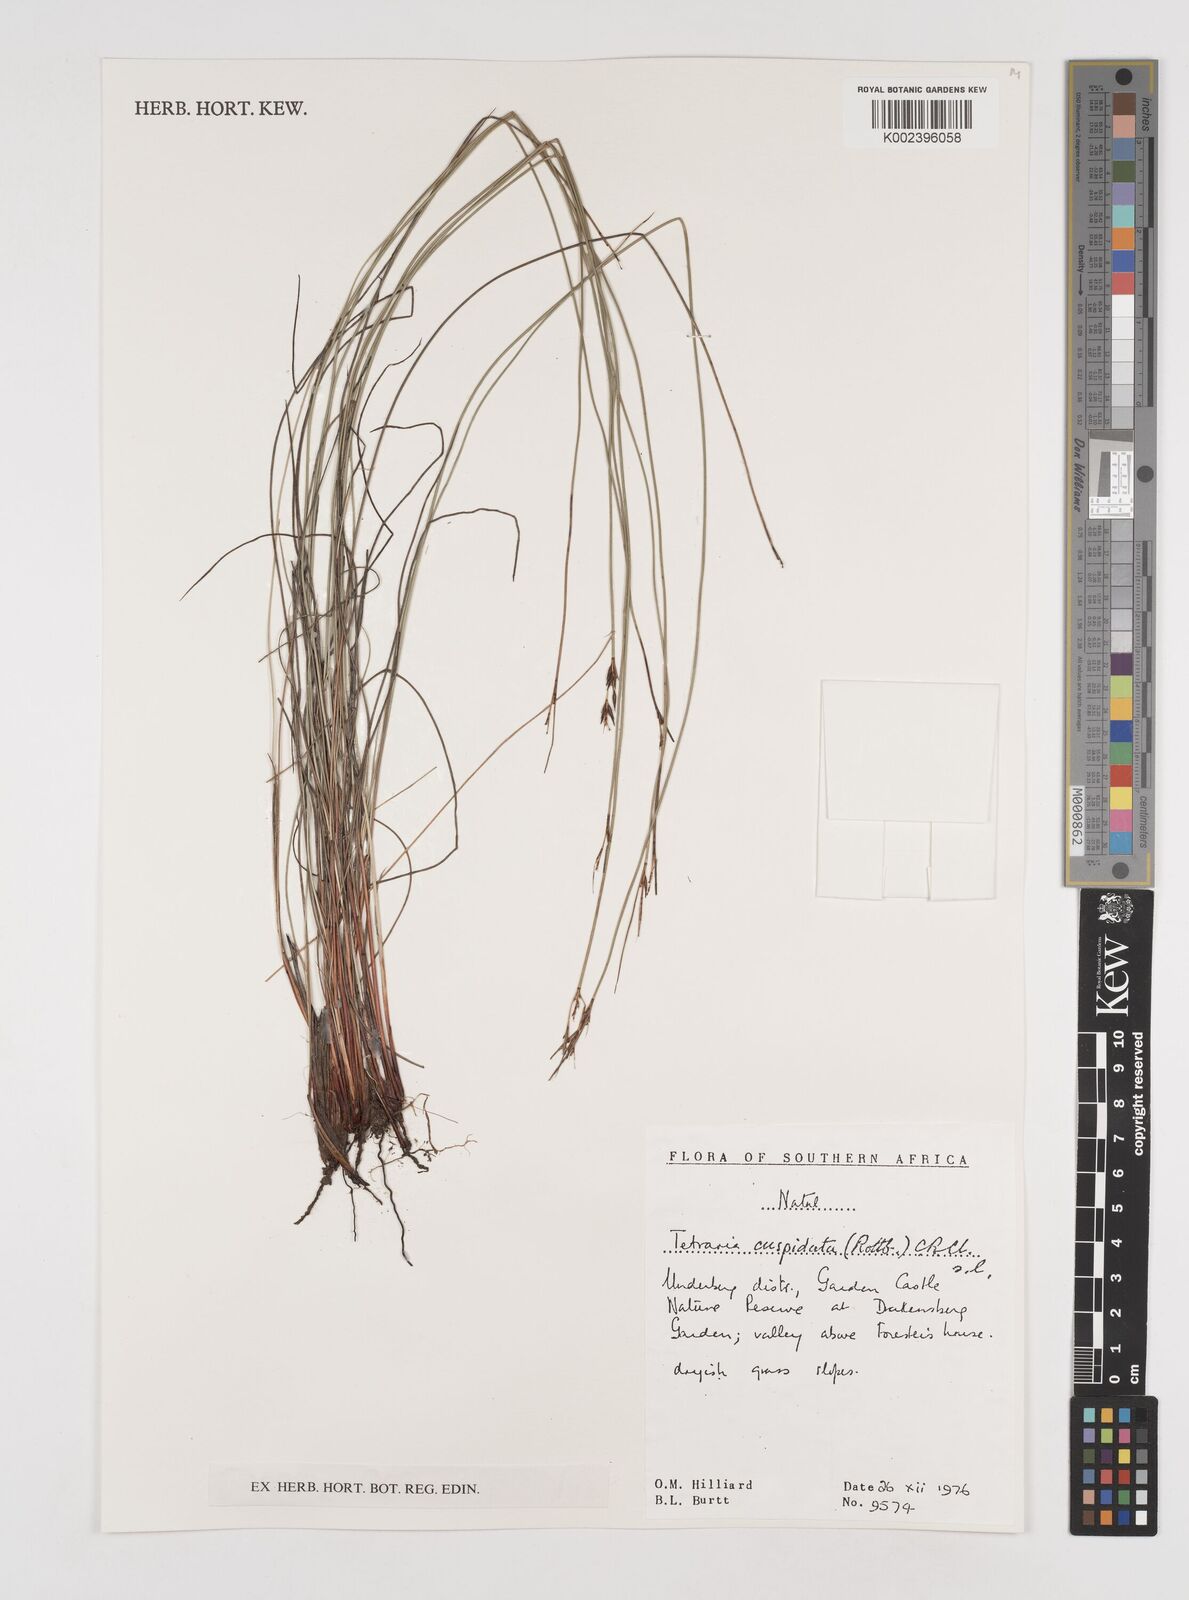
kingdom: Plantae
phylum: Tracheophyta
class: Liliopsida
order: Poales
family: Cyperaceae
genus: Schoenus
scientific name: Schoenus cuspidatus
